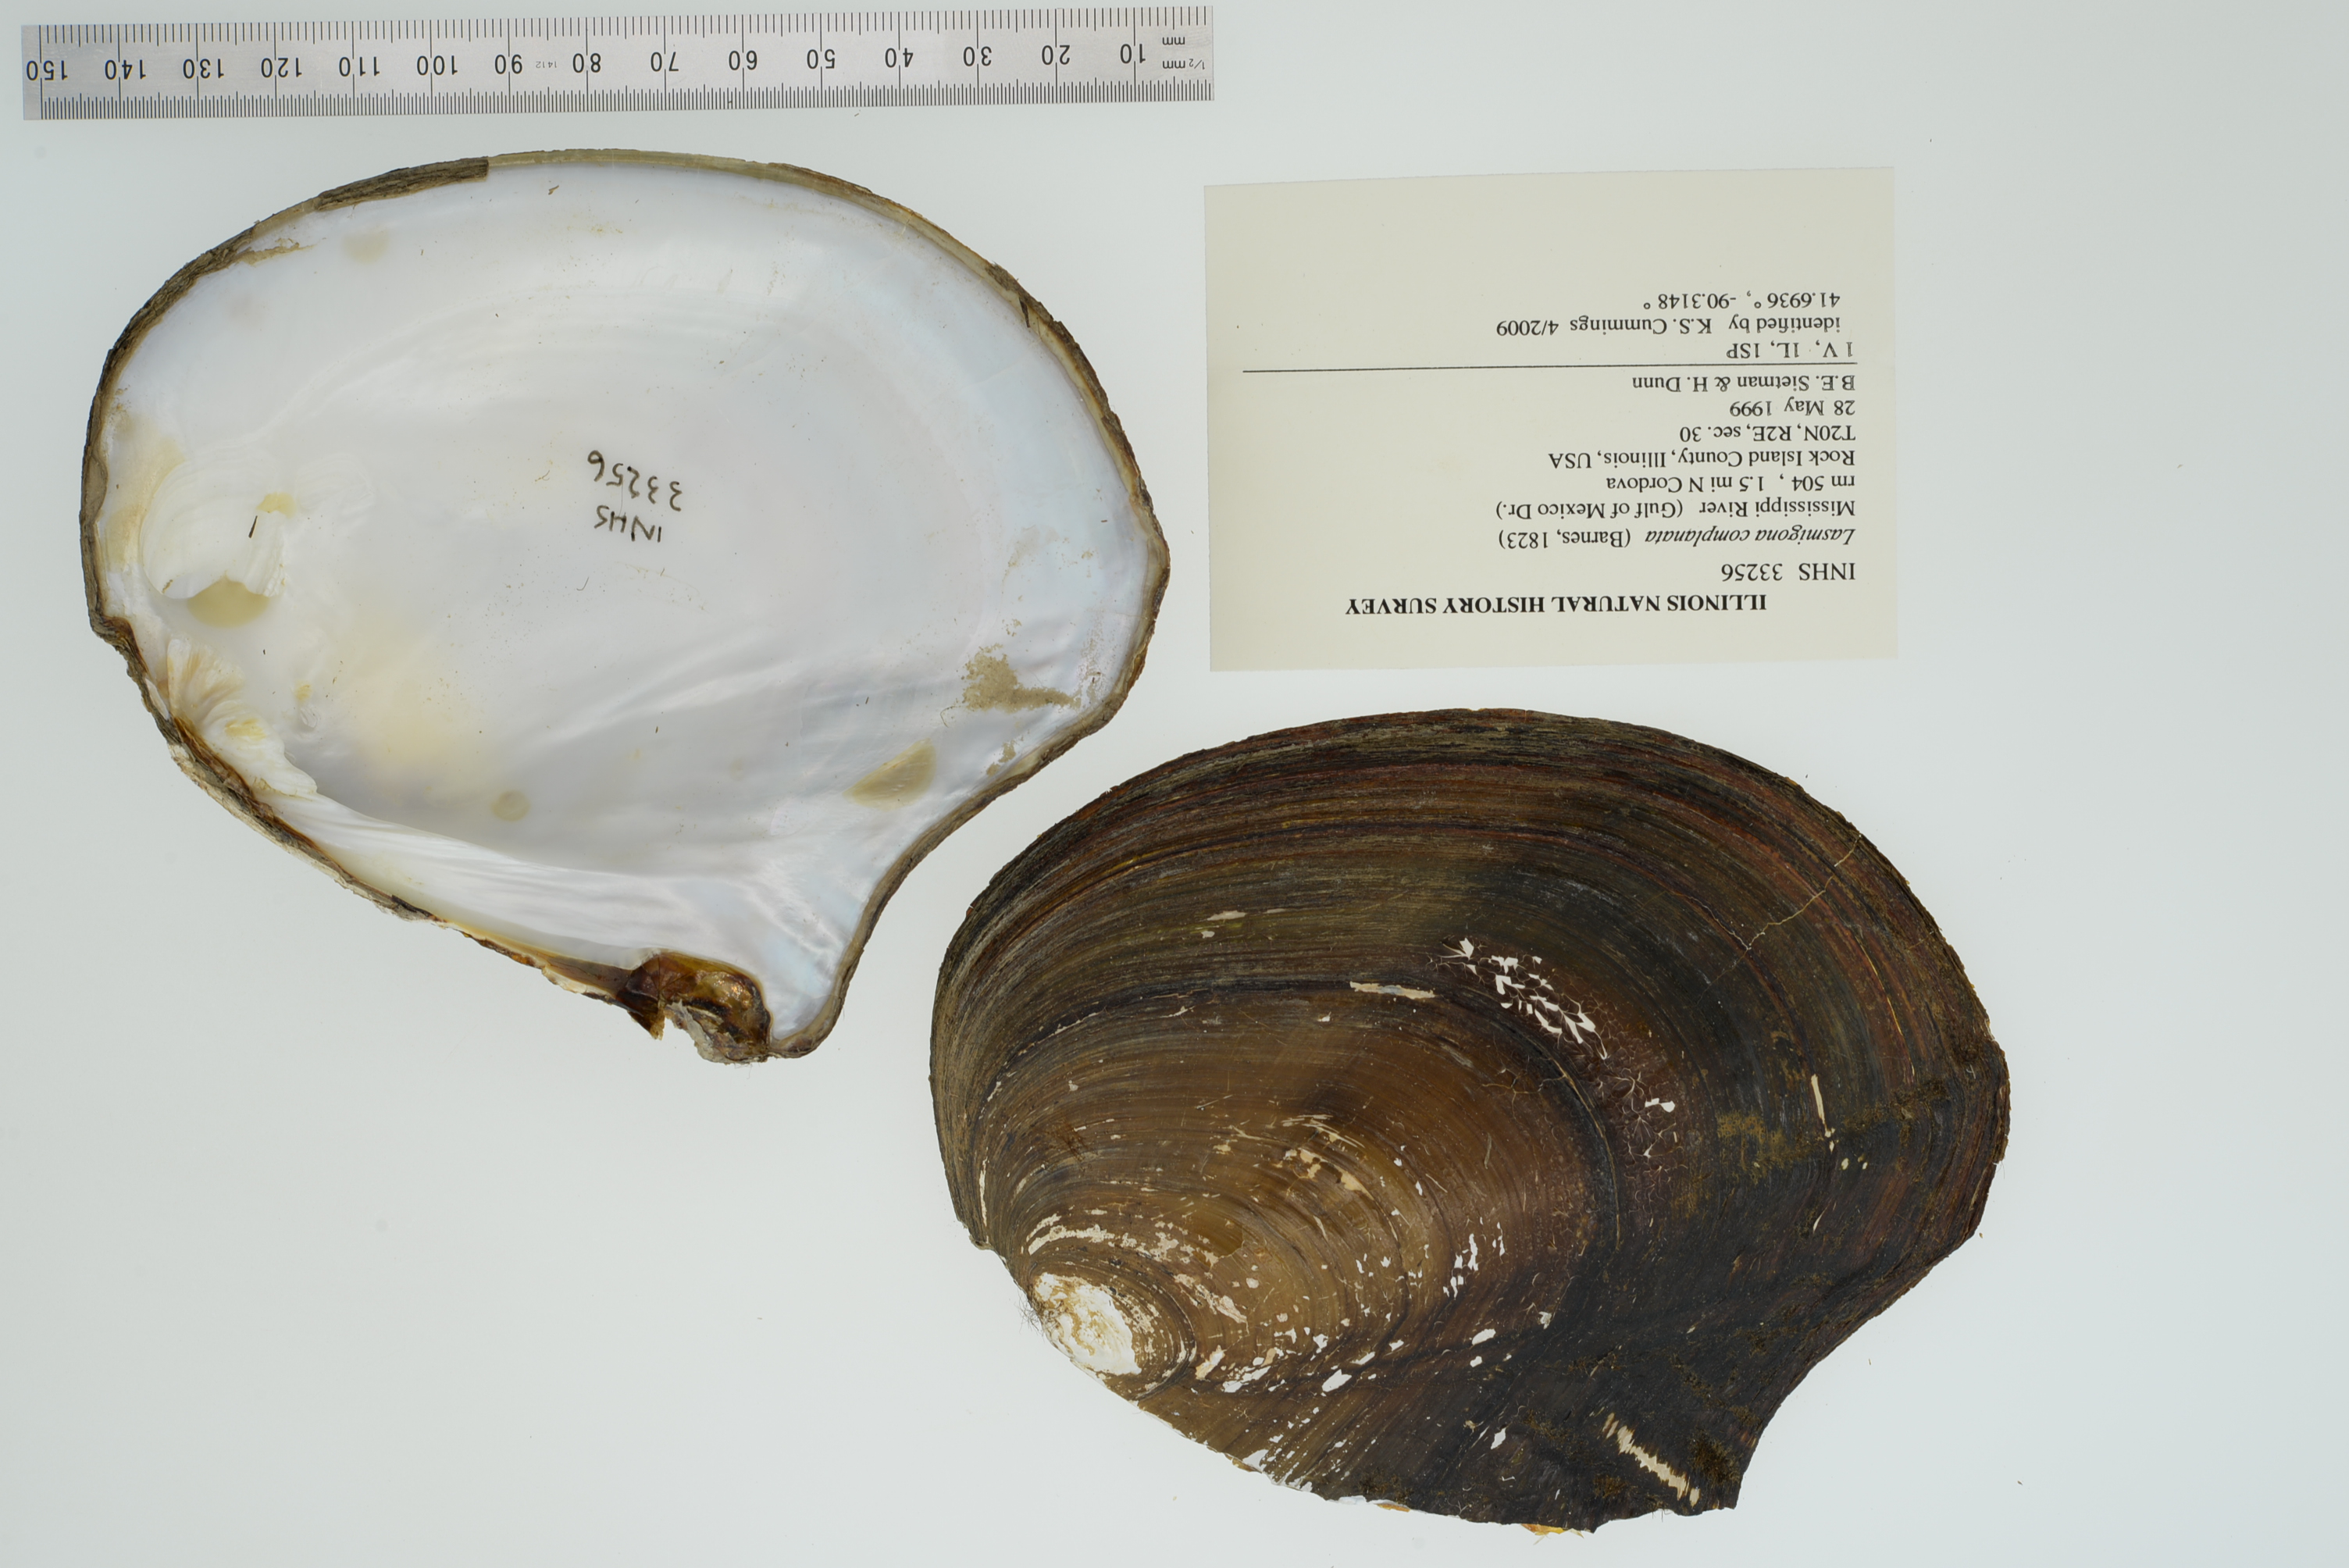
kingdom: Animalia
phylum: Mollusca
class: Bivalvia
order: Unionida
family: Unionidae
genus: Lasmigona
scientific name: Lasmigona complanata
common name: White heelsplitter
